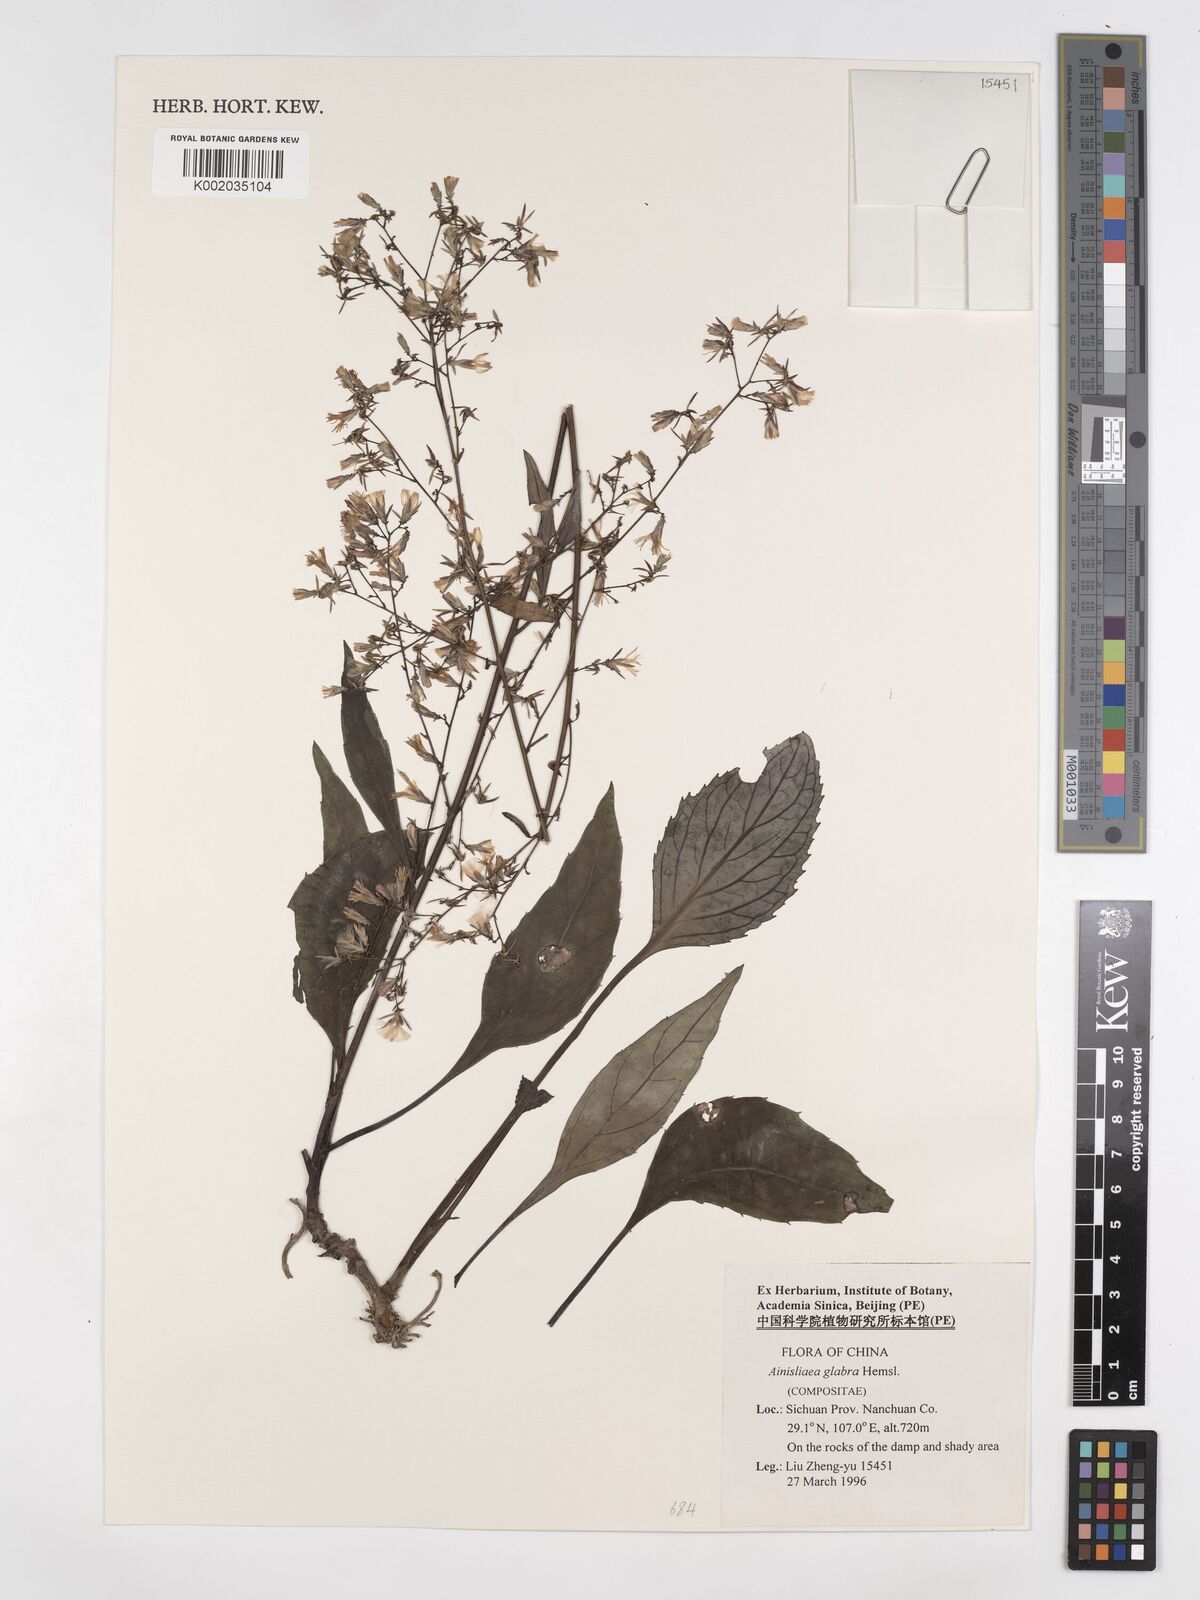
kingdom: Plantae
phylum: Tracheophyta
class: Magnoliopsida
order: Asterales
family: Asteraceae
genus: Ainsliaea
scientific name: Ainsliaea glabra
